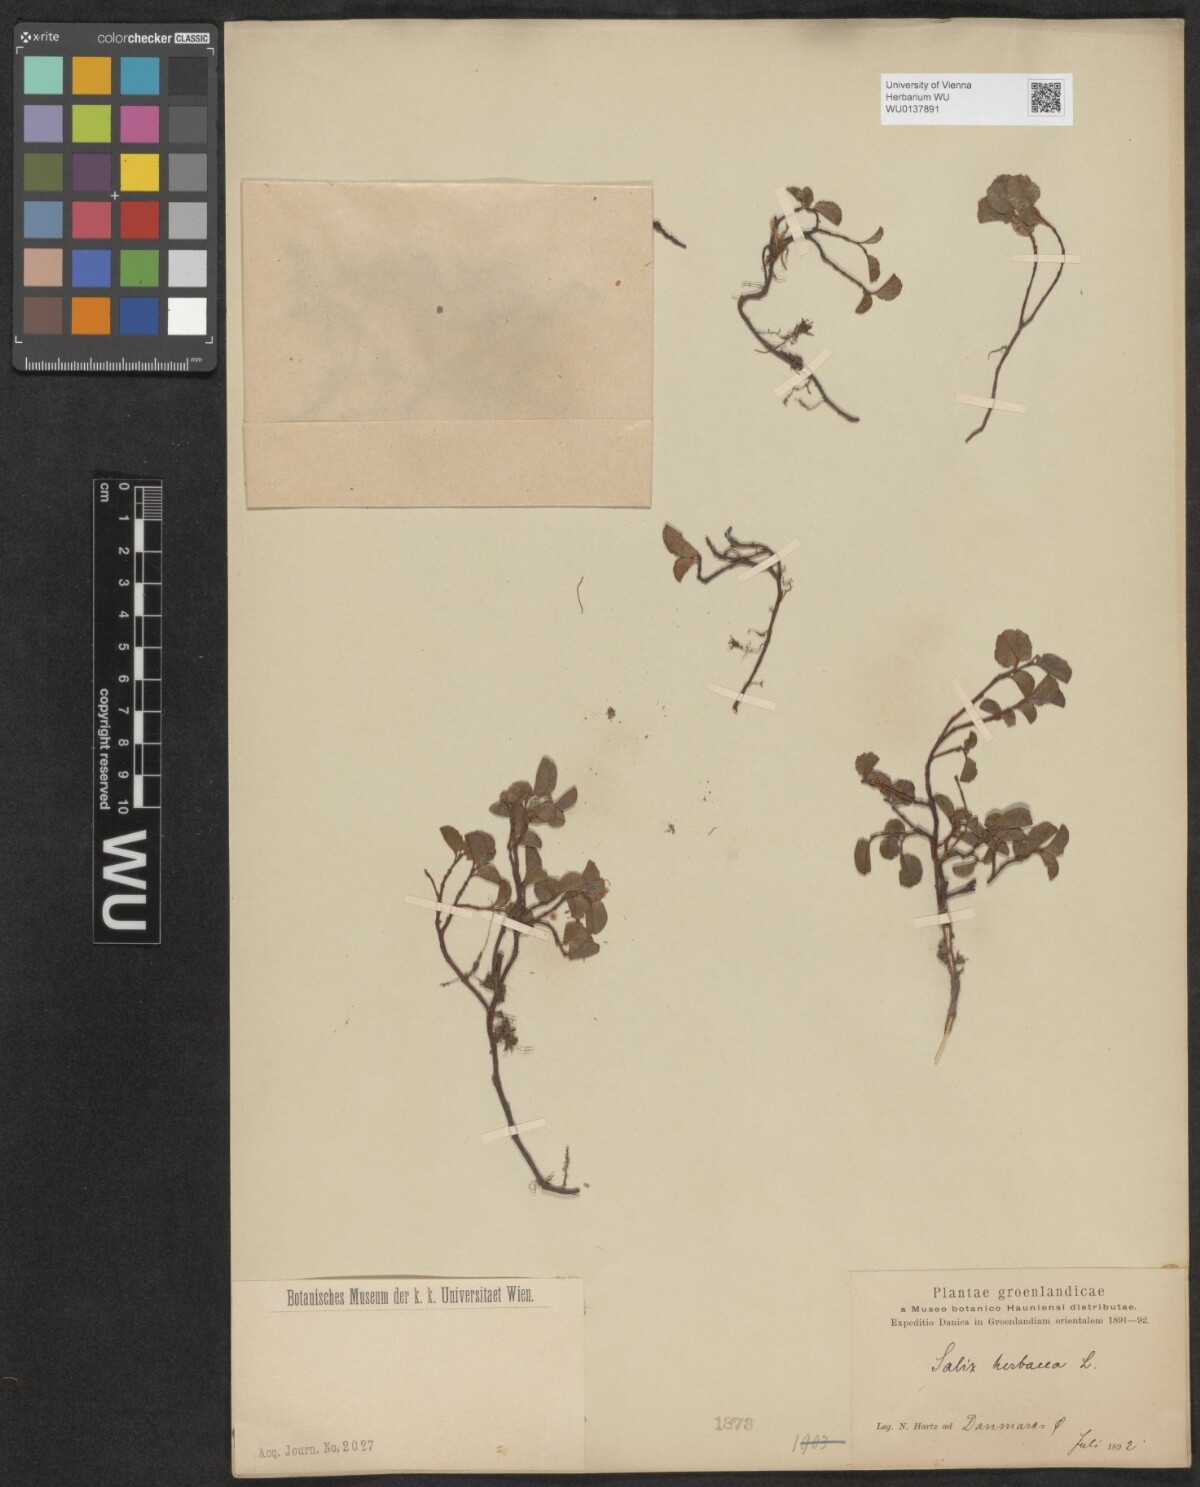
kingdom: Plantae
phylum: Tracheophyta
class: Magnoliopsida
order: Malpighiales
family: Salicaceae
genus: Salix
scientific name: Salix herbacea
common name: Dwarf willow
